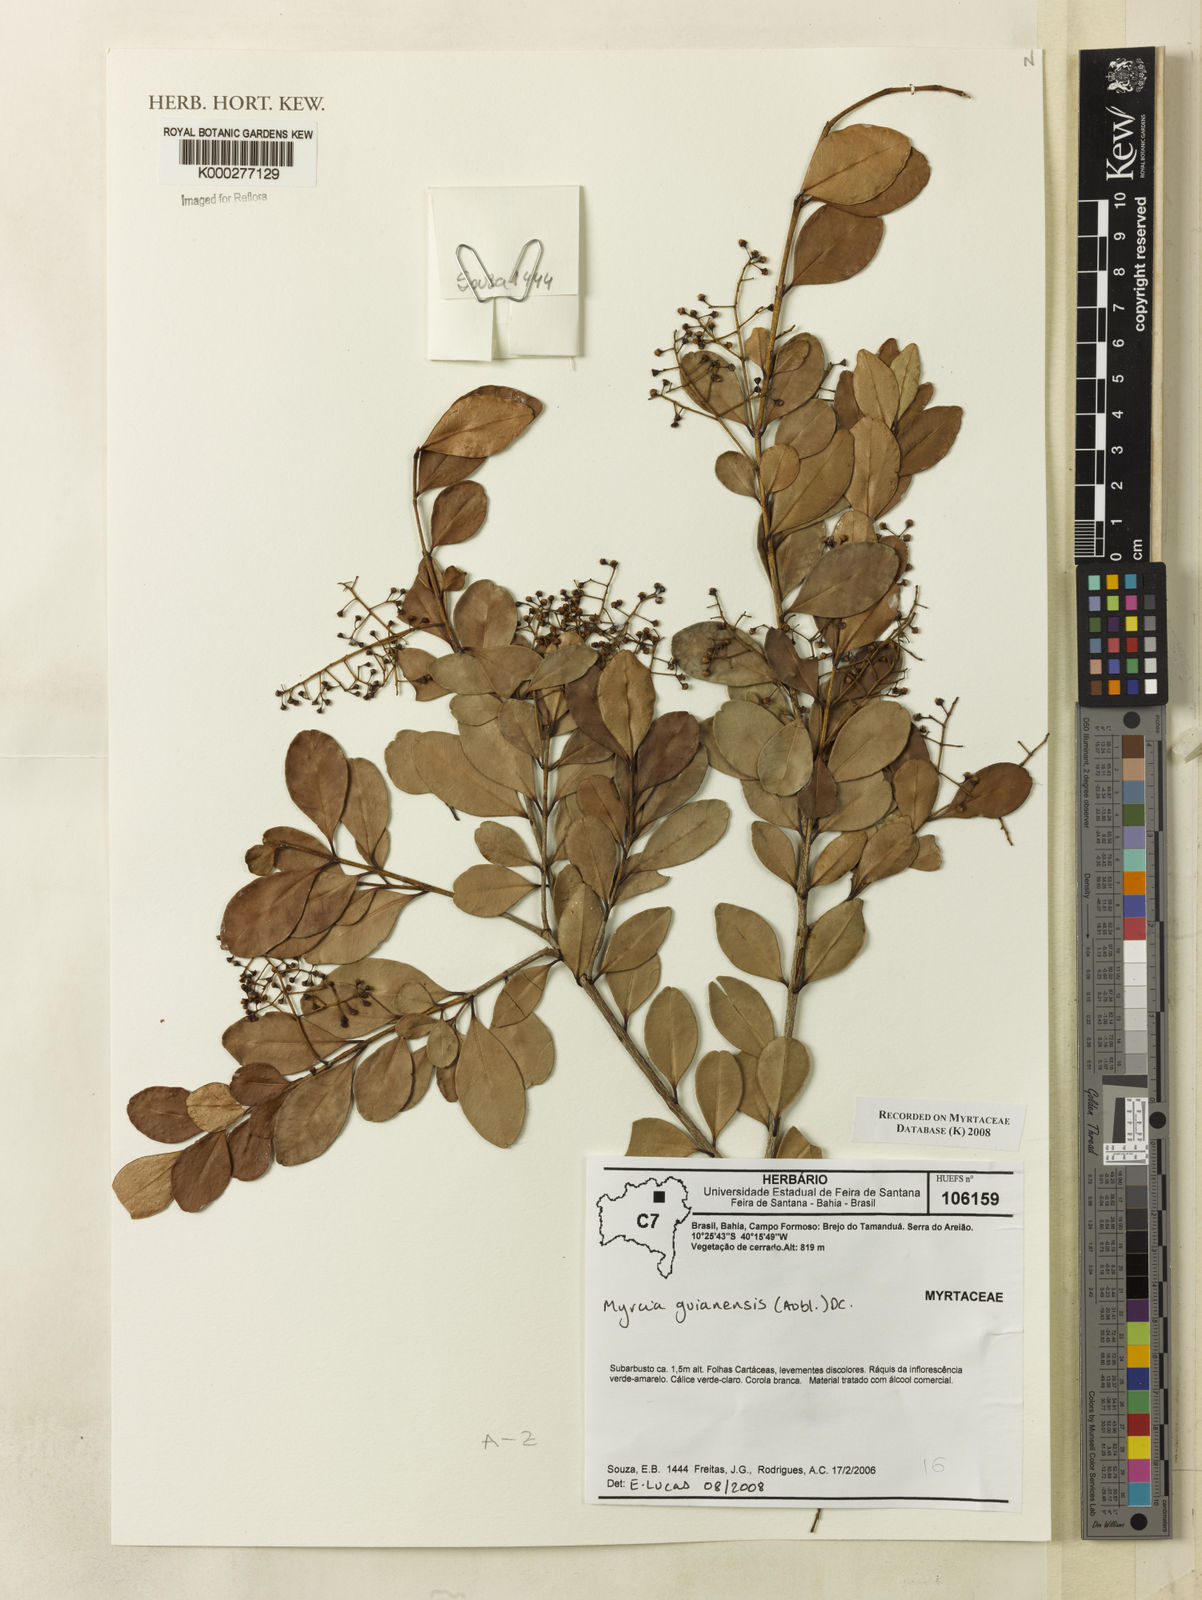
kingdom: Plantae
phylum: Tracheophyta
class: Magnoliopsida
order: Myrtales
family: Myrtaceae
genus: Myrcia
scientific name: Myrcia guianensis
